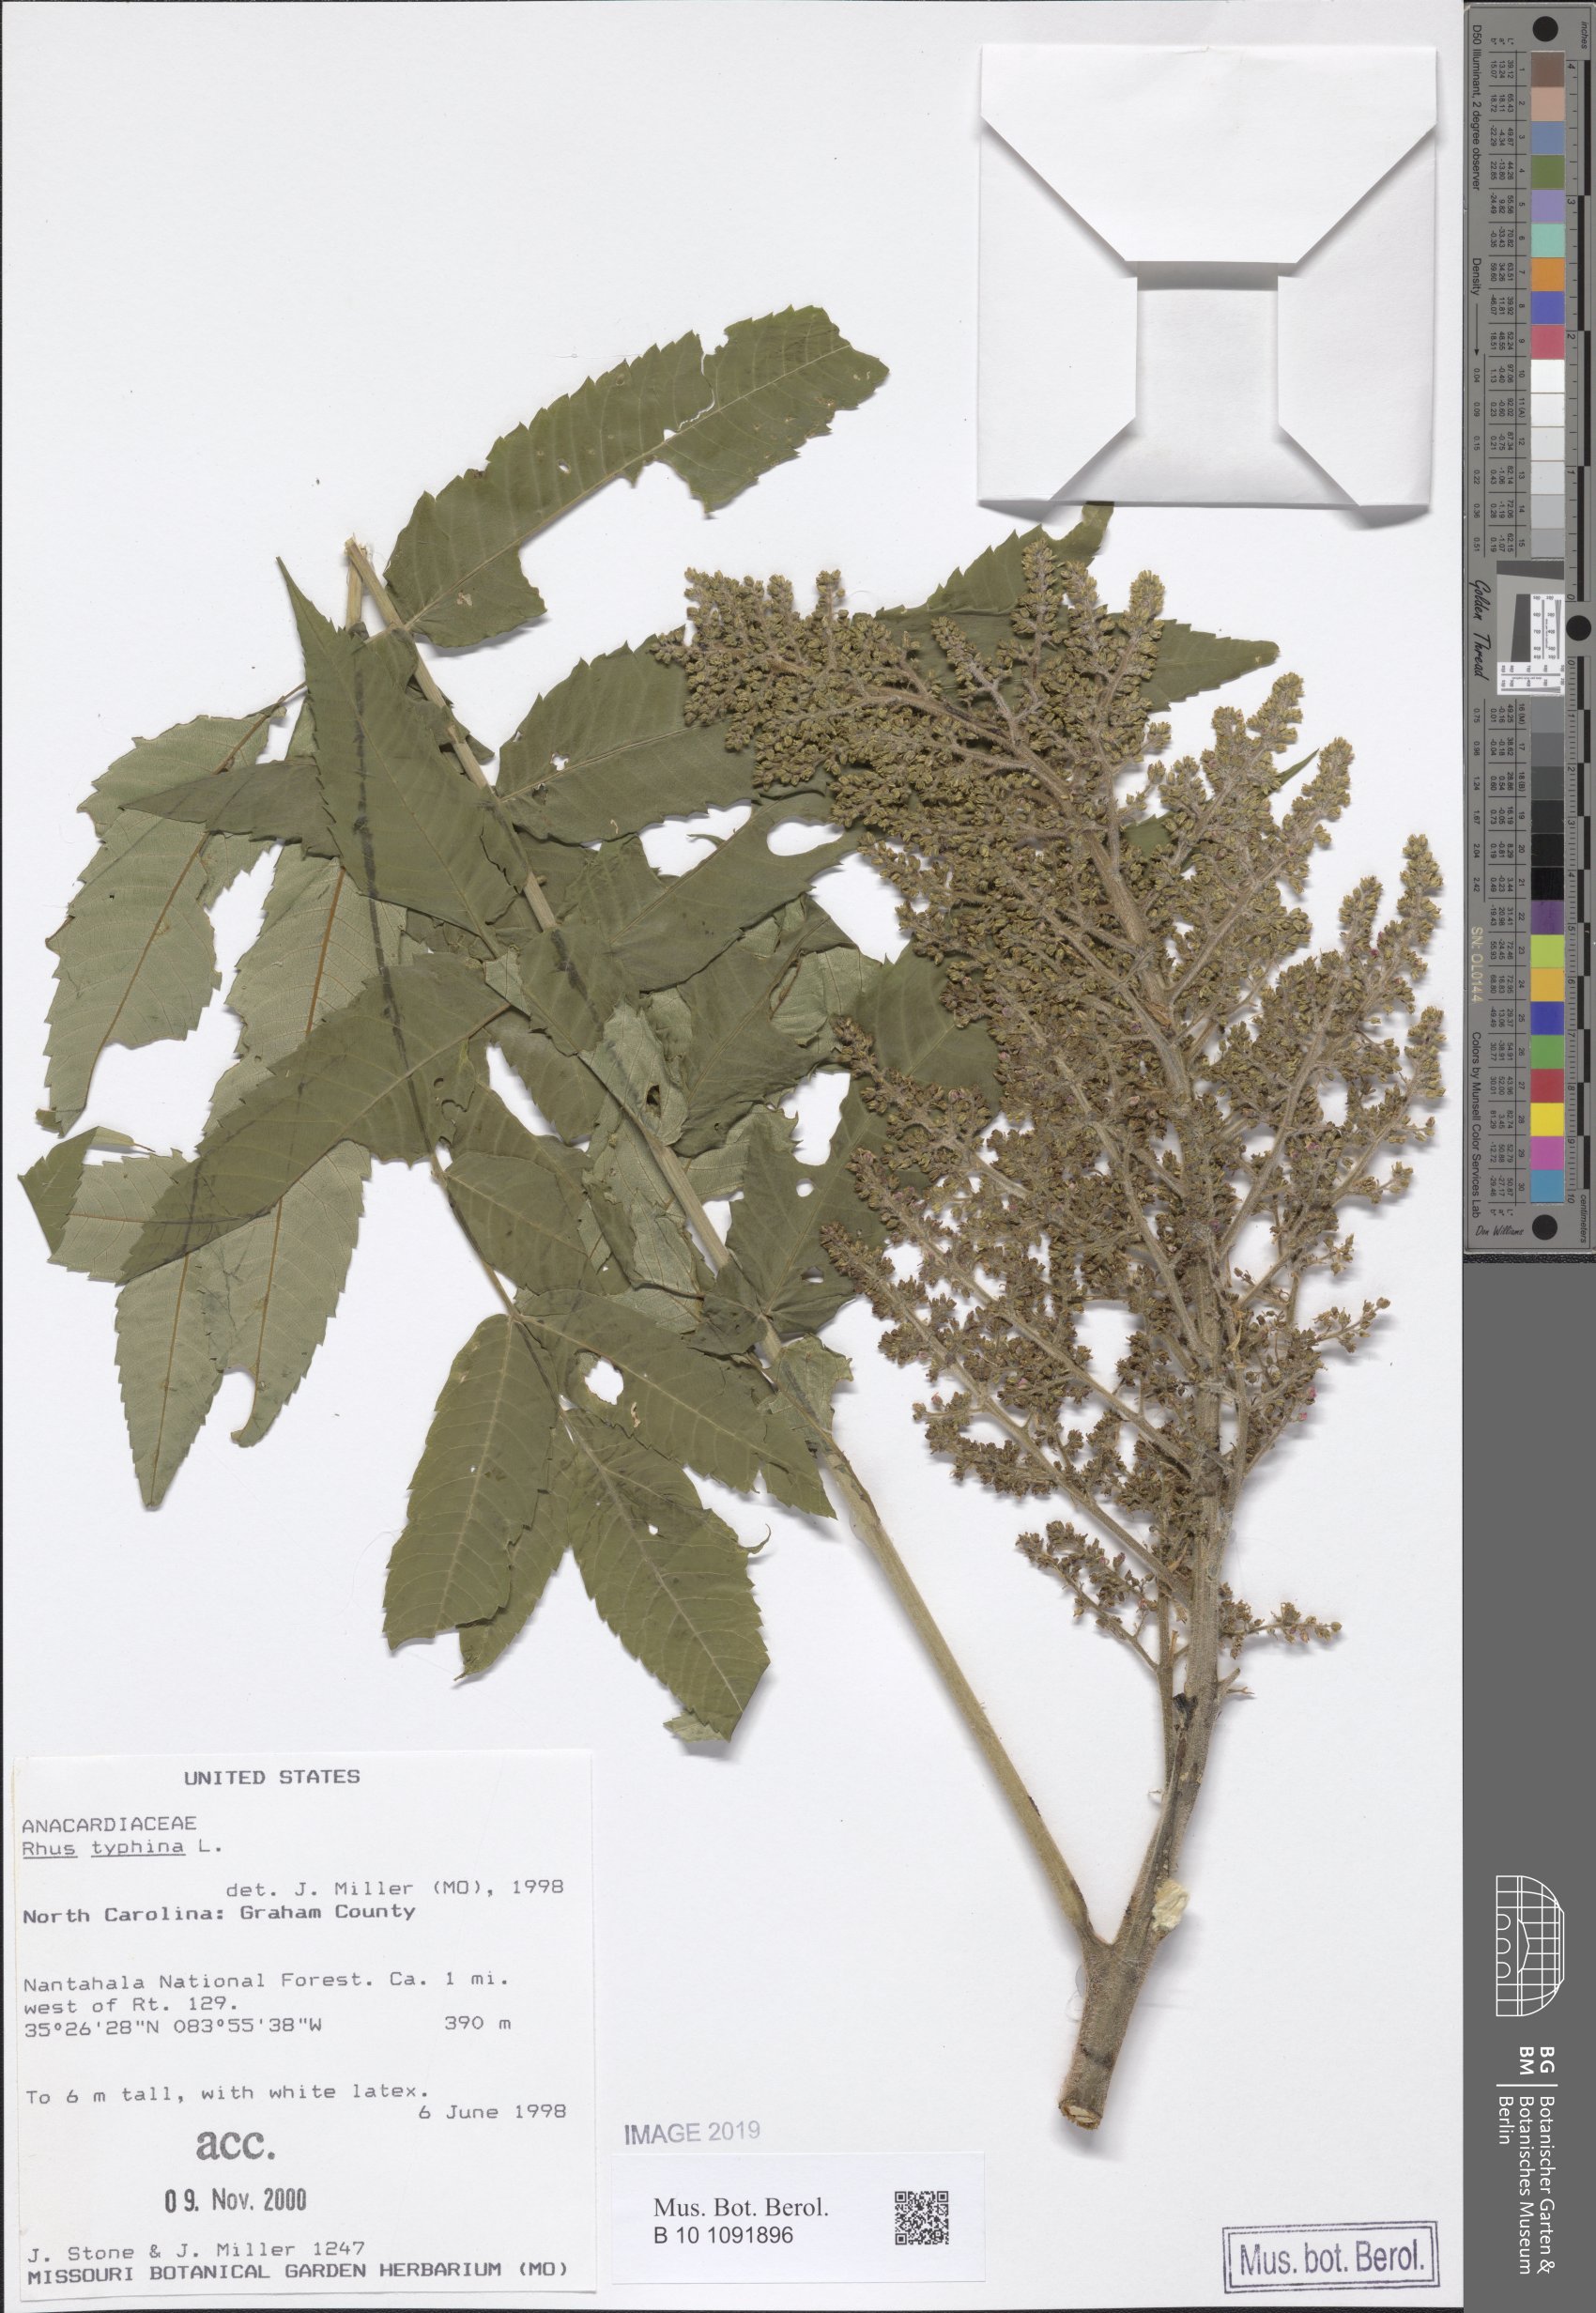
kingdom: Plantae
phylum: Tracheophyta
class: Magnoliopsida
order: Sapindales
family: Anacardiaceae
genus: Rhus
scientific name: Rhus typhina
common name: Staghorn sumac
